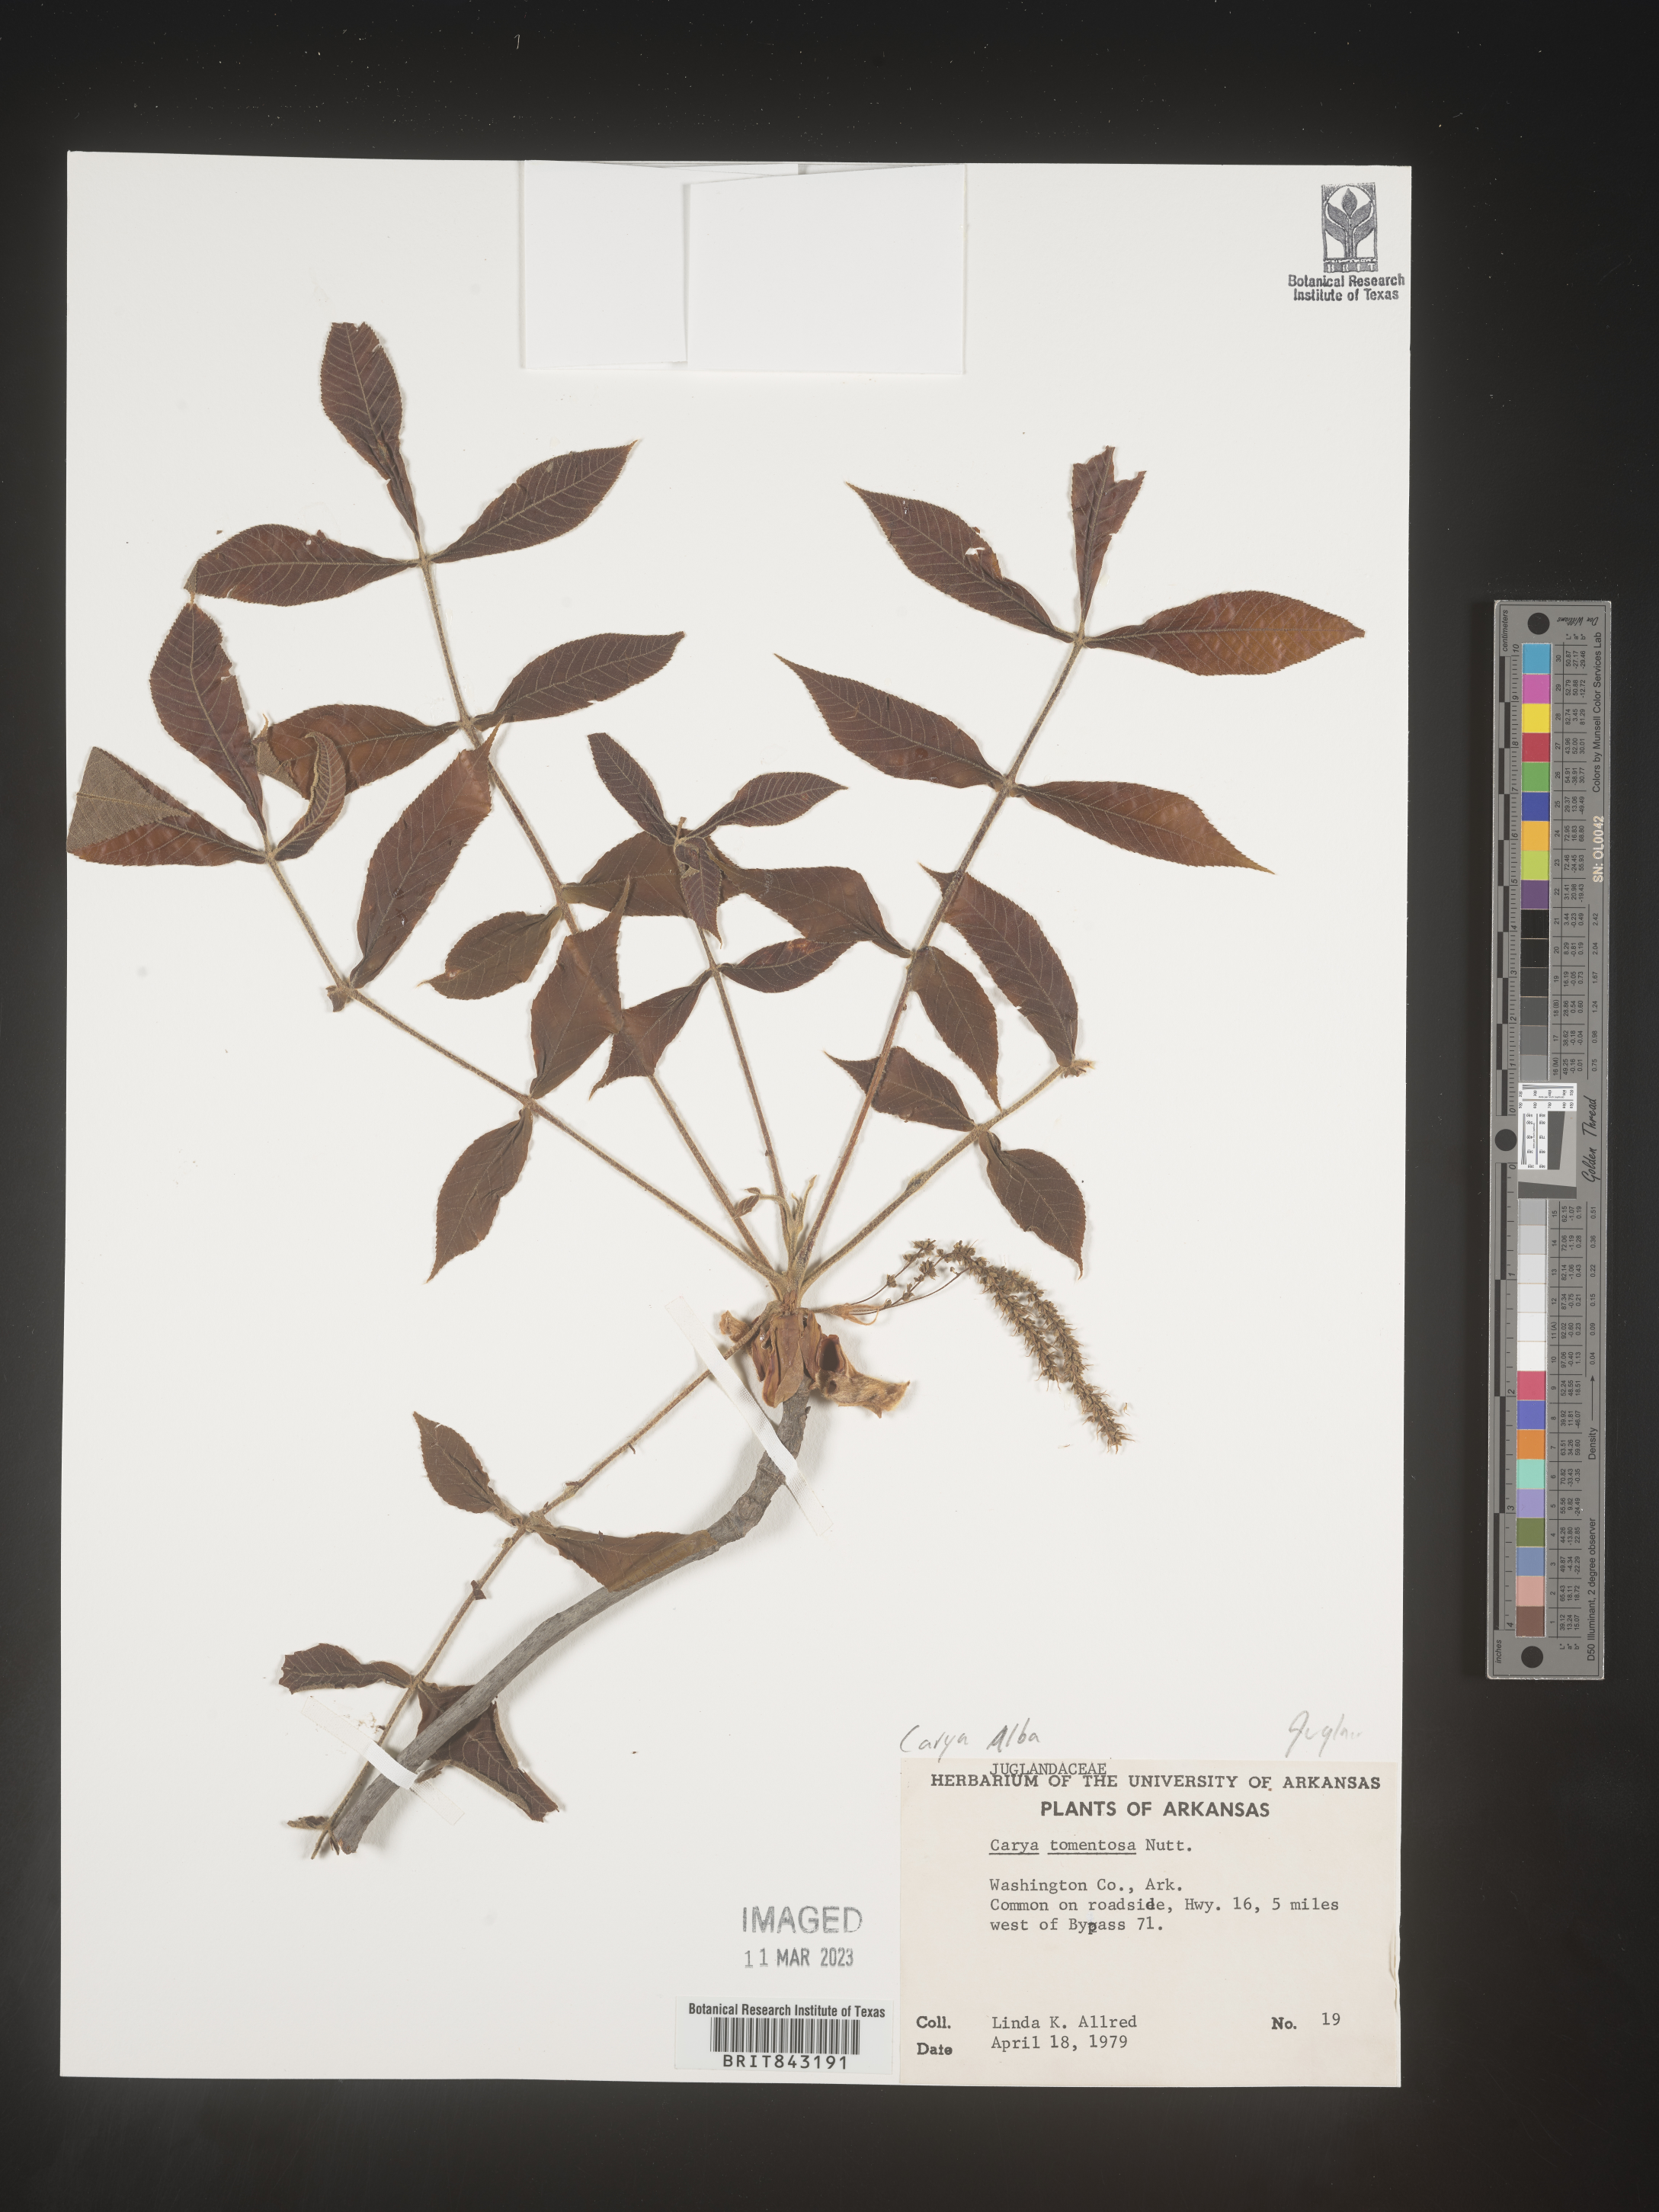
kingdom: Plantae
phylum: Tracheophyta
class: Magnoliopsida
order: Fagales
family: Juglandaceae
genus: Carya
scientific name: Carya alba
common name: Mockernut hickory
